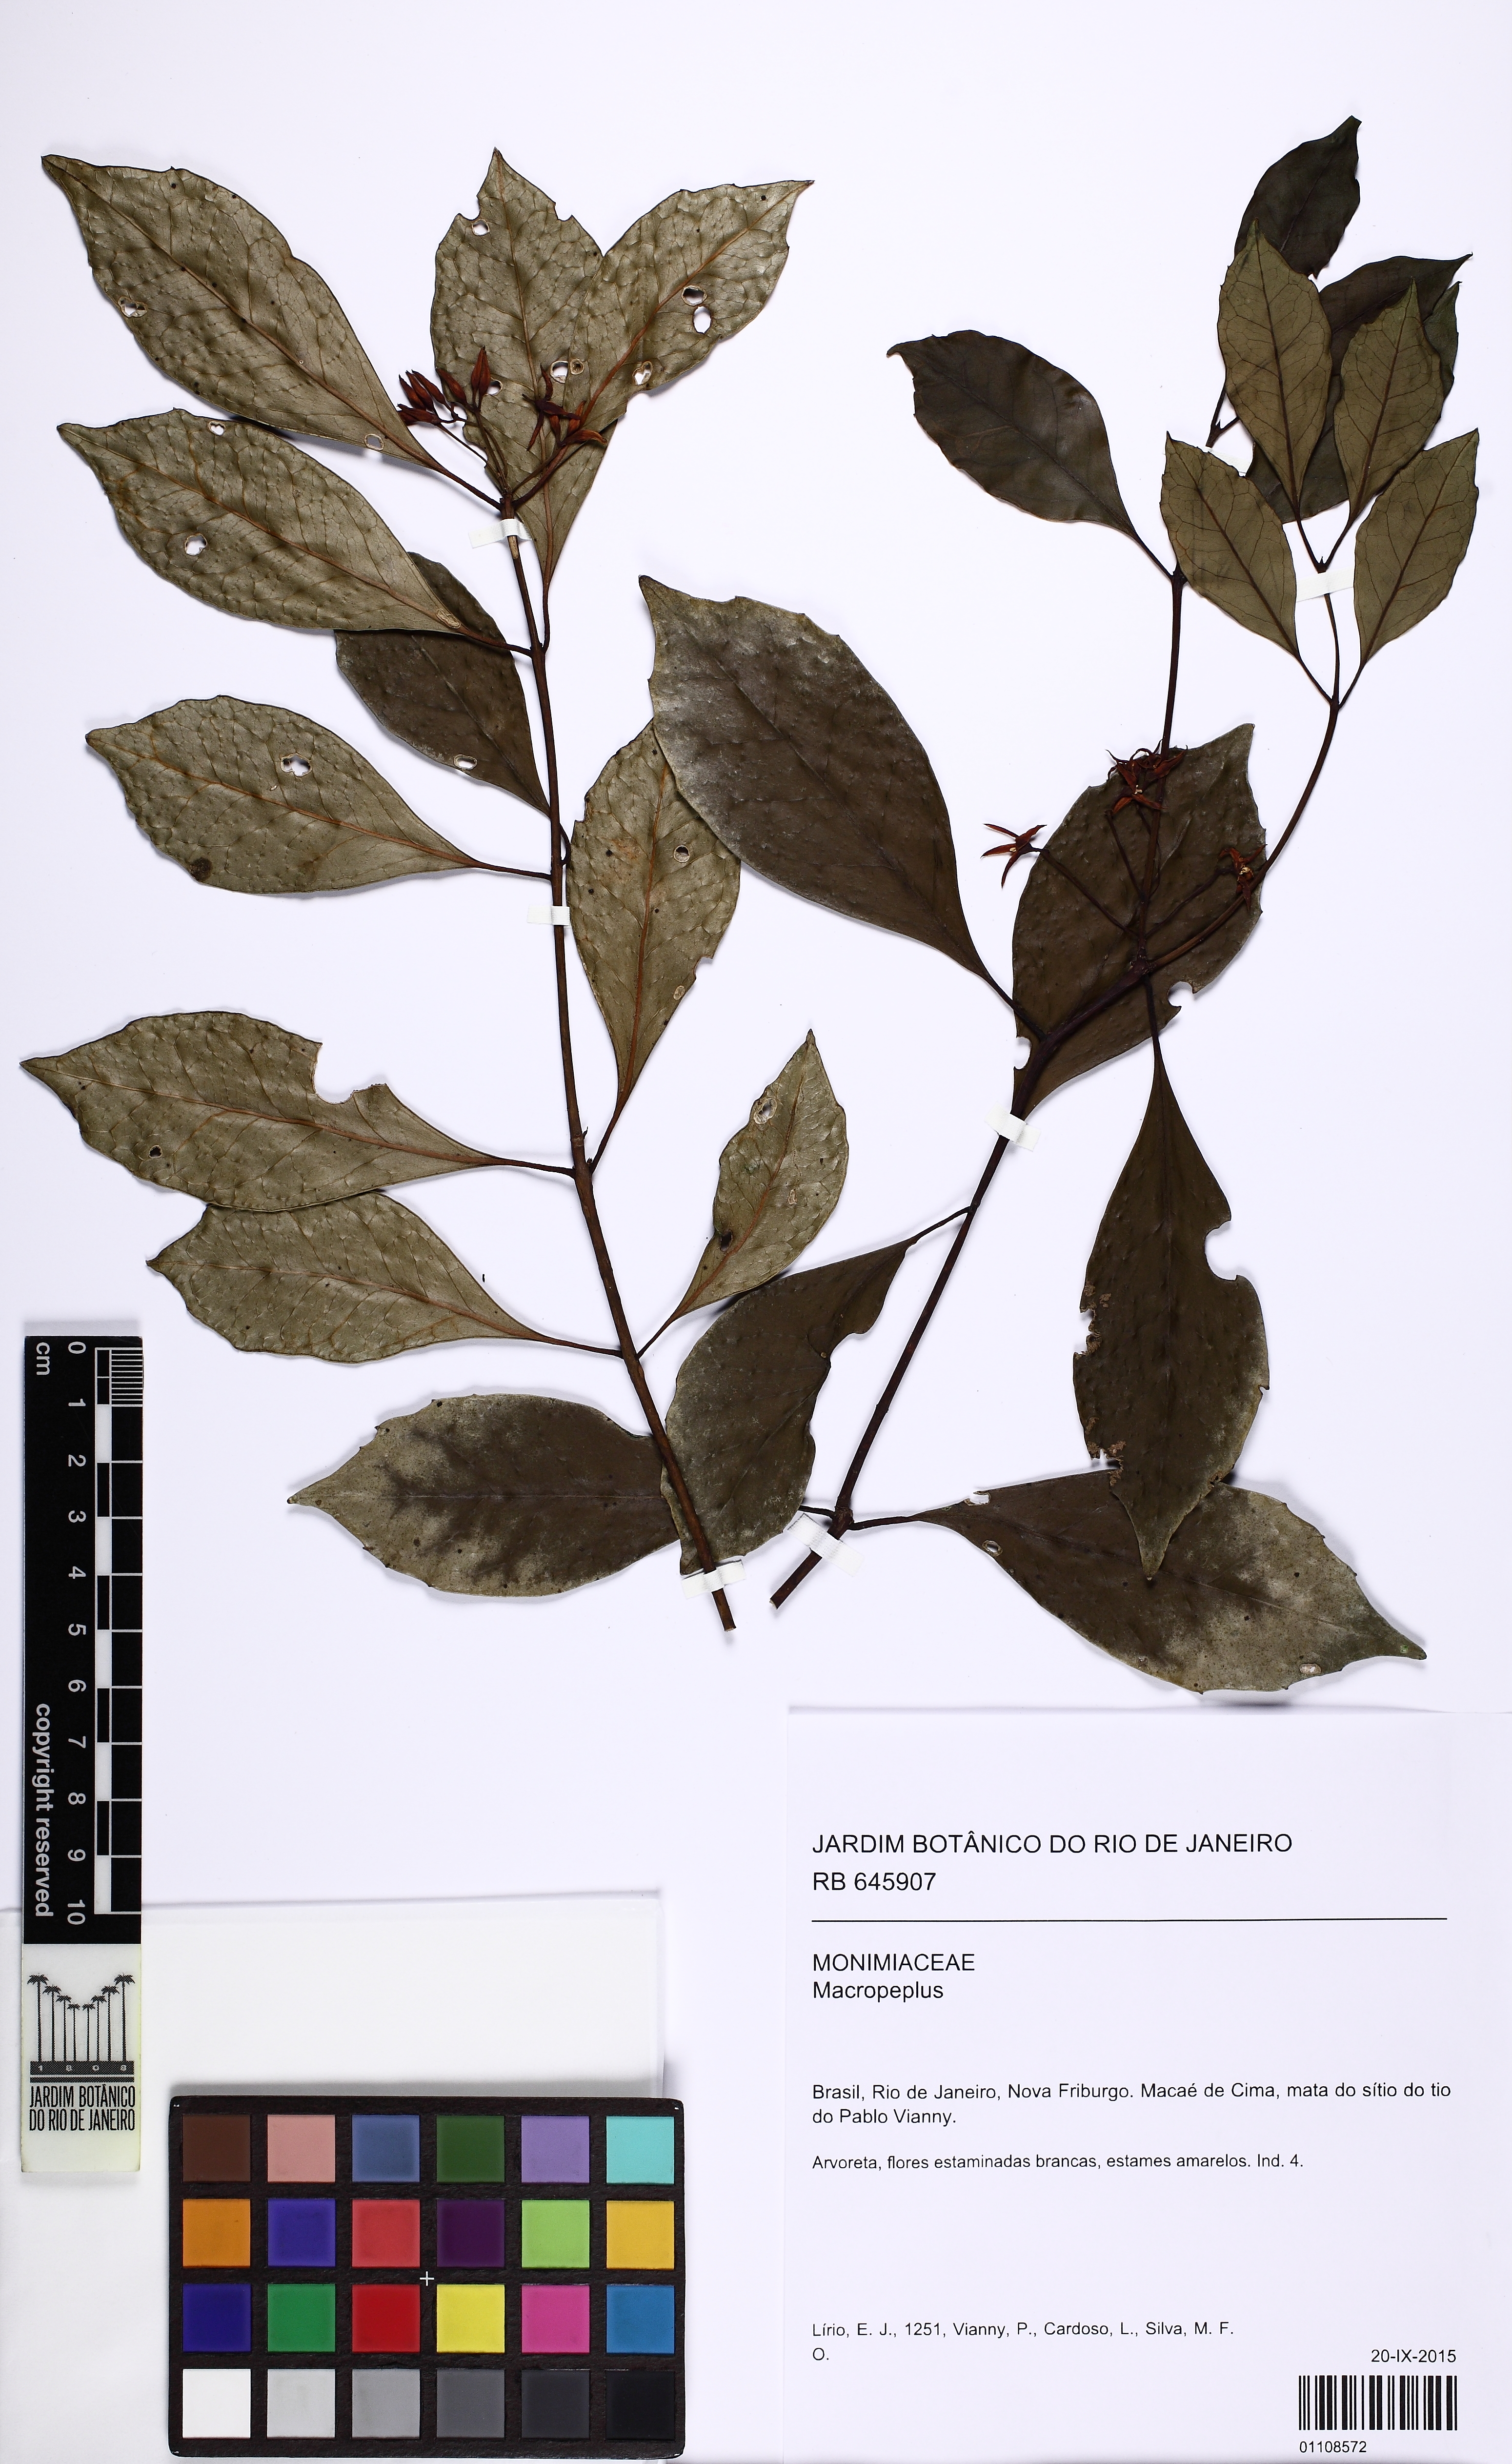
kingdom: Plantae
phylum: Tracheophyta
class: Magnoliopsida
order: Laurales
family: Monimiaceae
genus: Macropeplus
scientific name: Macropeplus friburgensis
